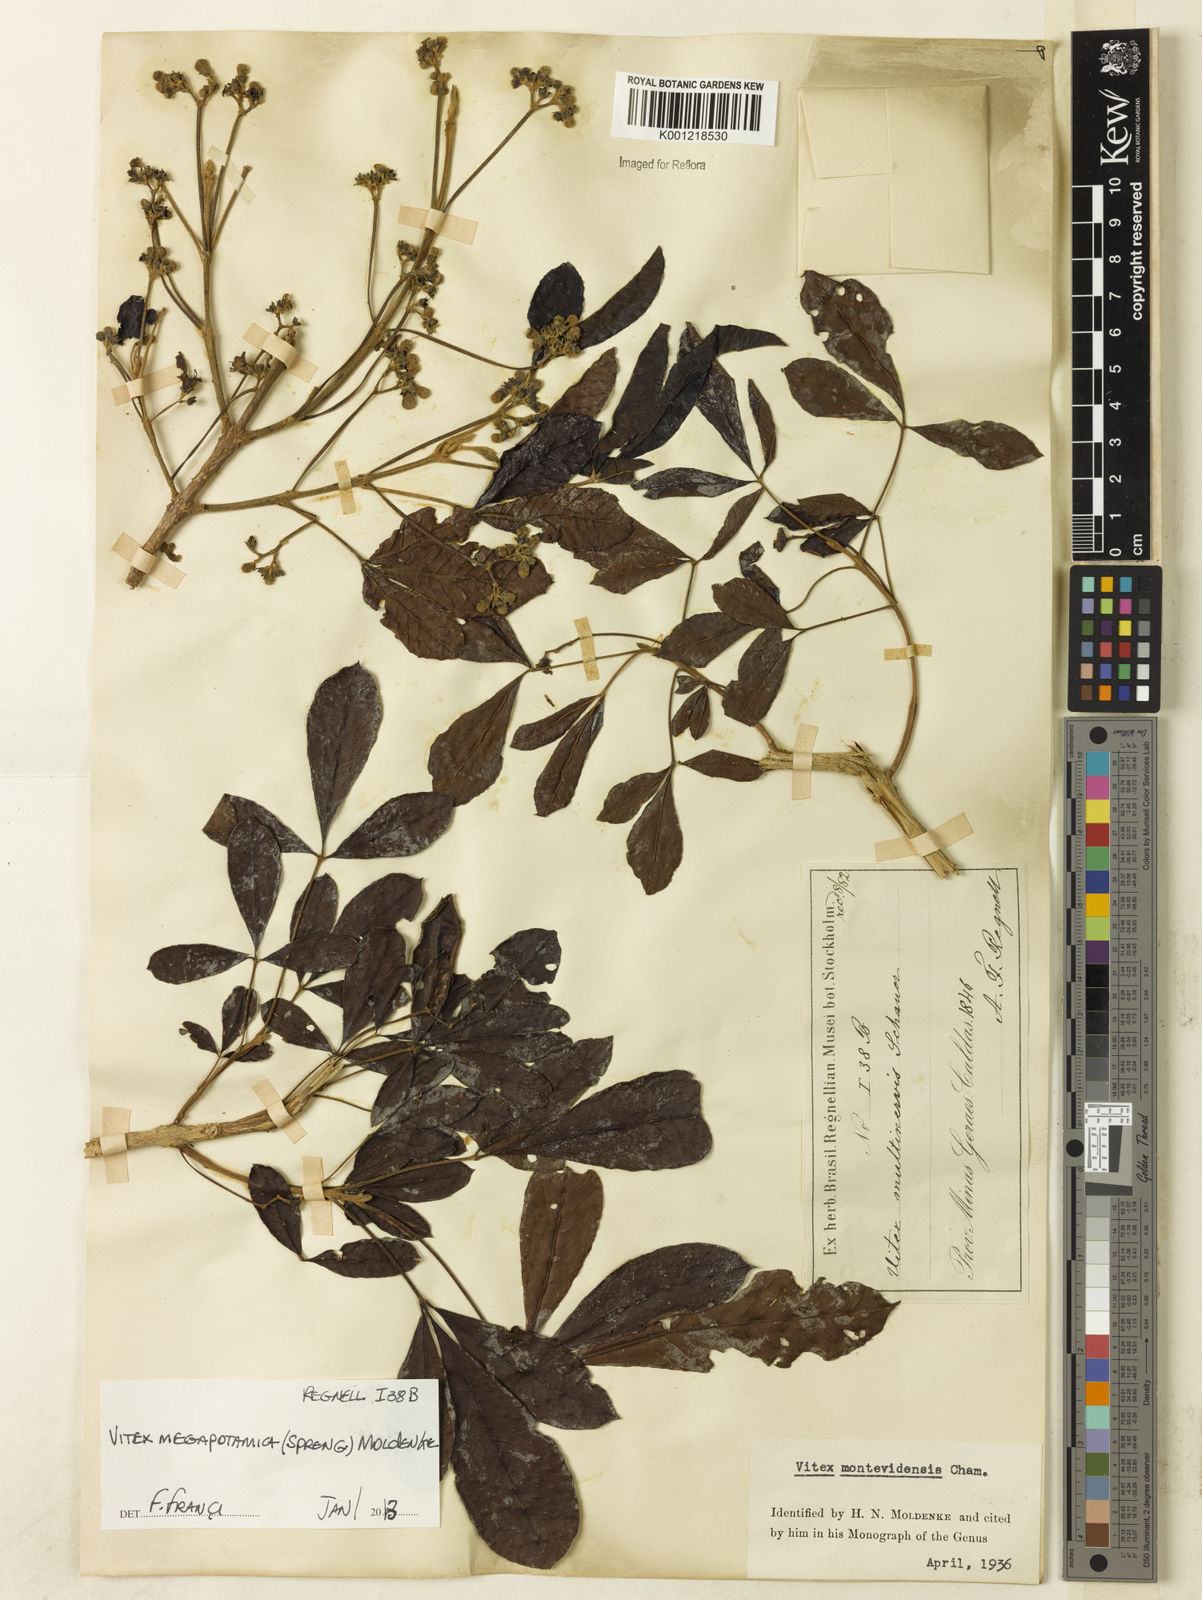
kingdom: Plantae
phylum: Tracheophyta
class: Magnoliopsida
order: Lamiales
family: Lamiaceae
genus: Vitex
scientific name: Vitex megapotamica
